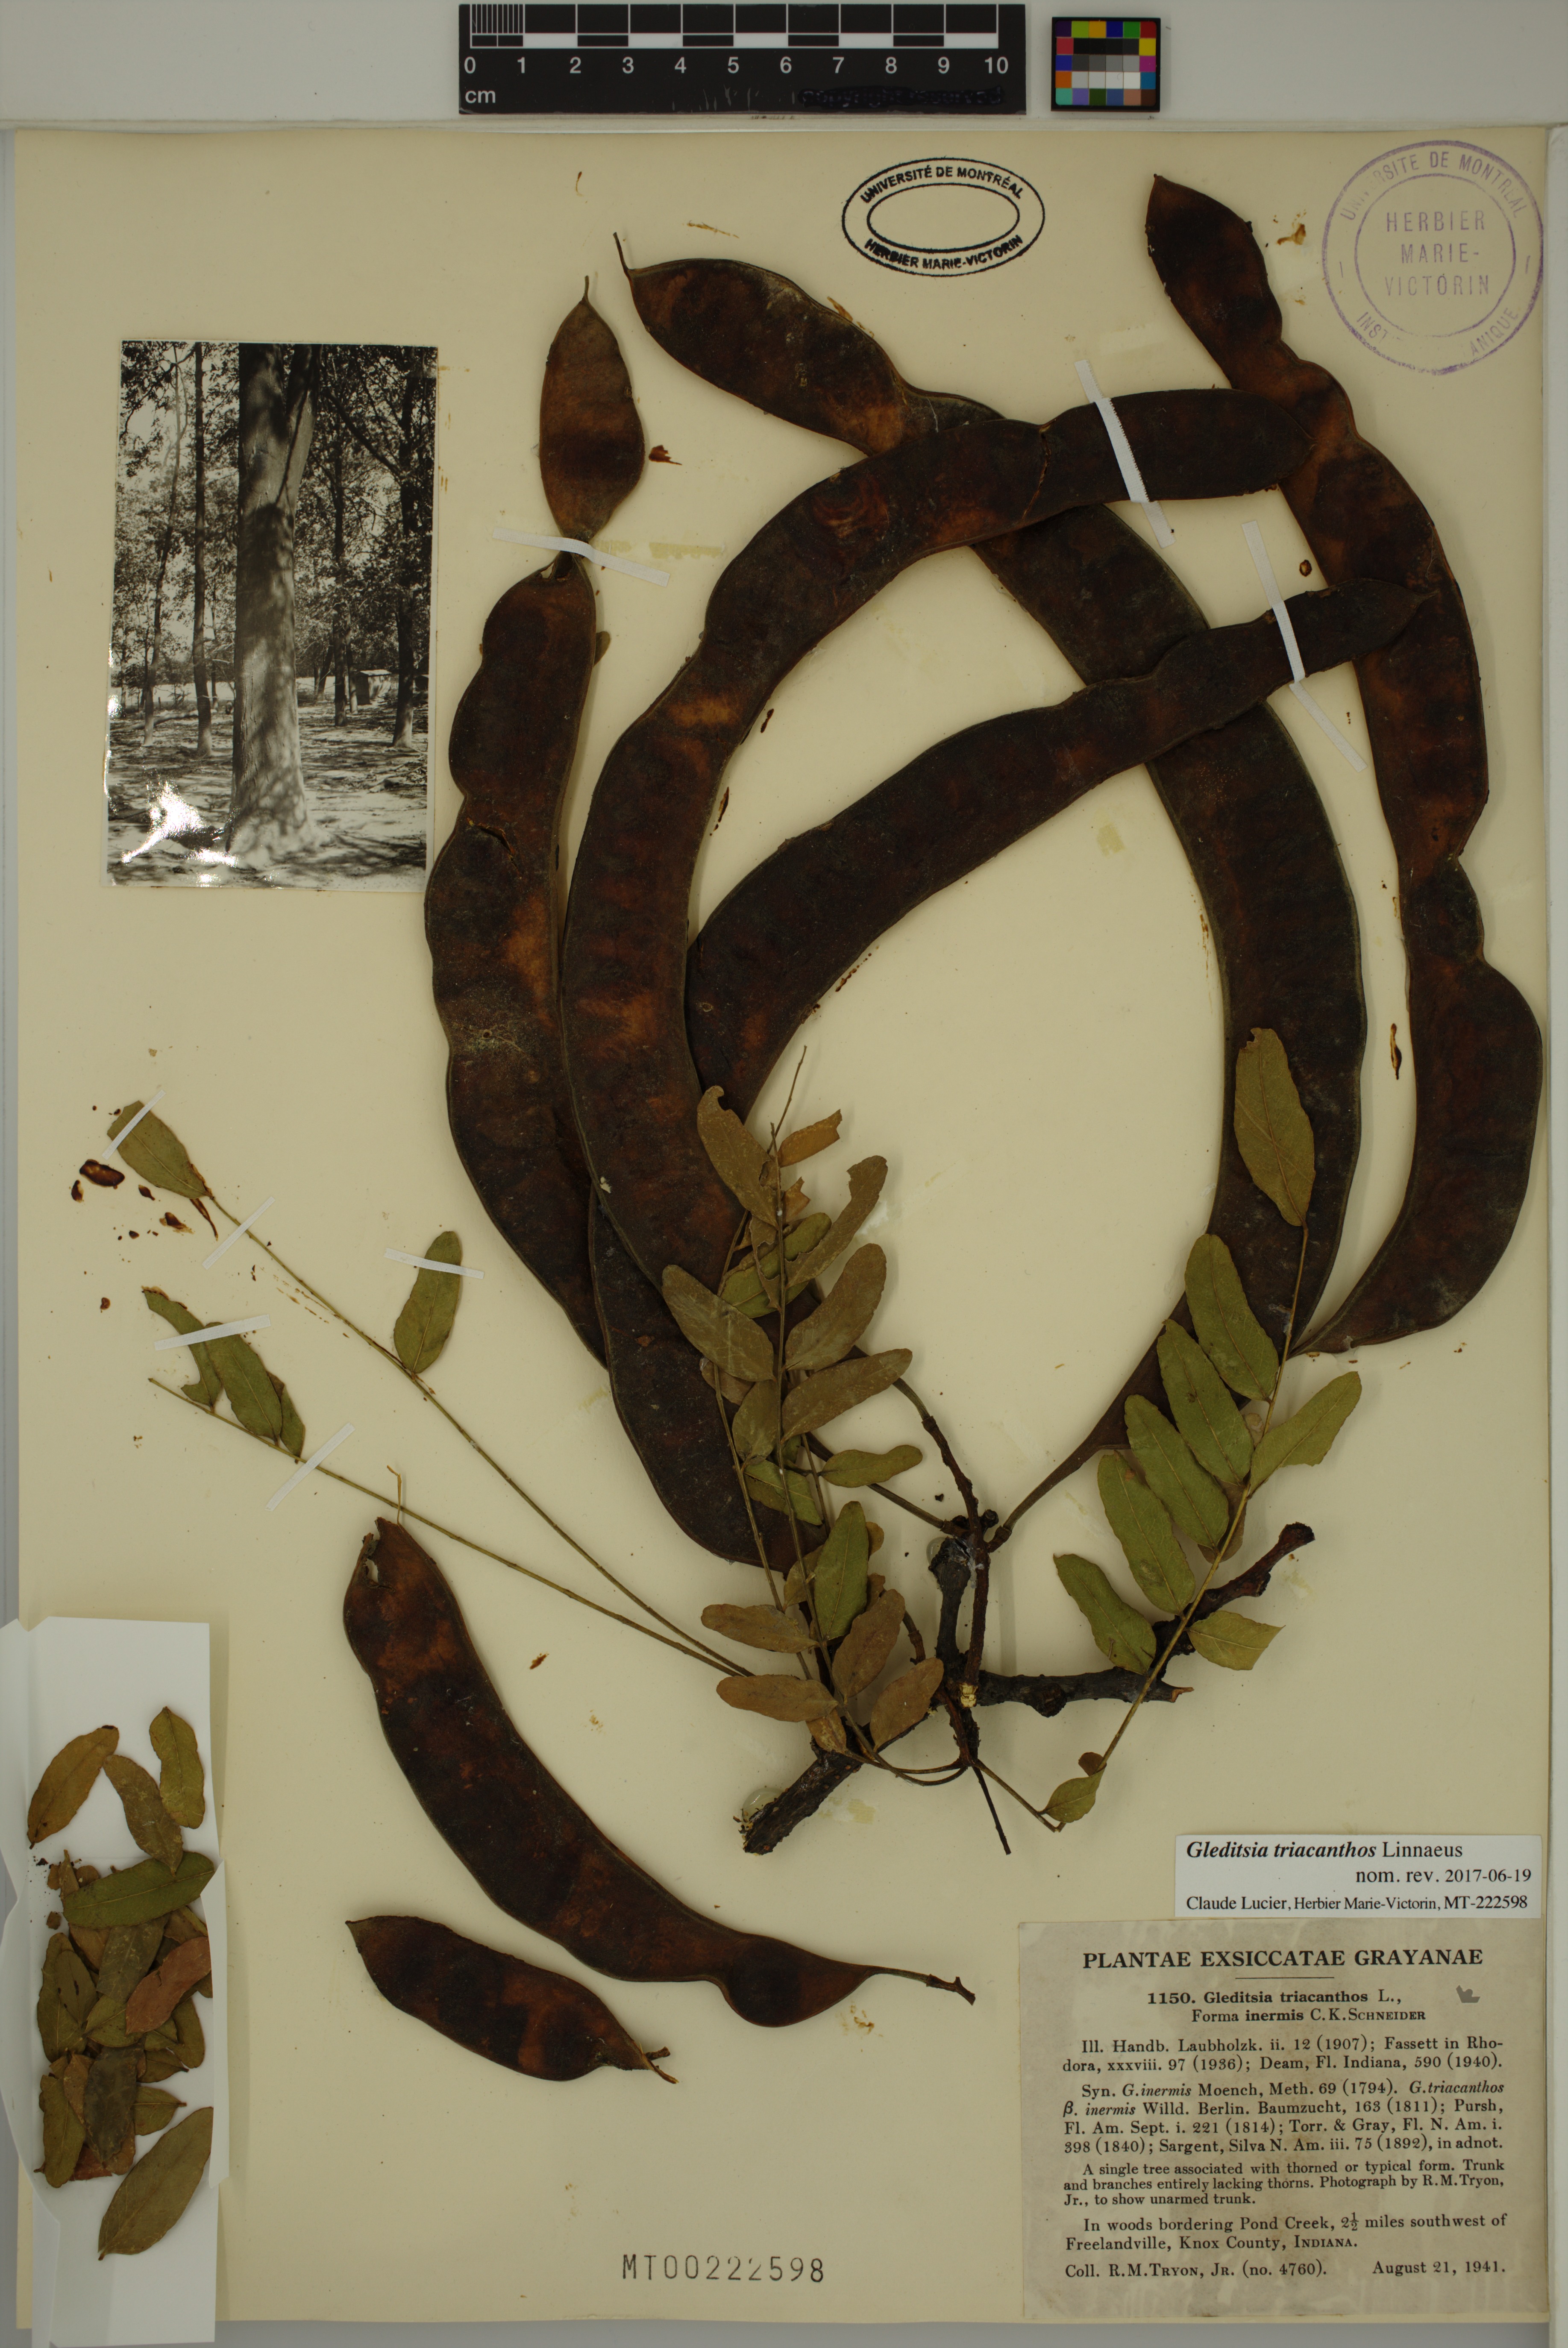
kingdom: Plantae
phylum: Tracheophyta
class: Magnoliopsida
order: Fabales
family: Fabaceae
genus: Gleditsia
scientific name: Gleditsia triacanthos
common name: Common honeylocust
